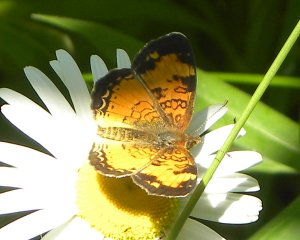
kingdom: Animalia
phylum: Arthropoda
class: Insecta
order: Lepidoptera
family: Nymphalidae
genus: Phyciodes
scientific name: Phyciodes tharos
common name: Northern Crescent
